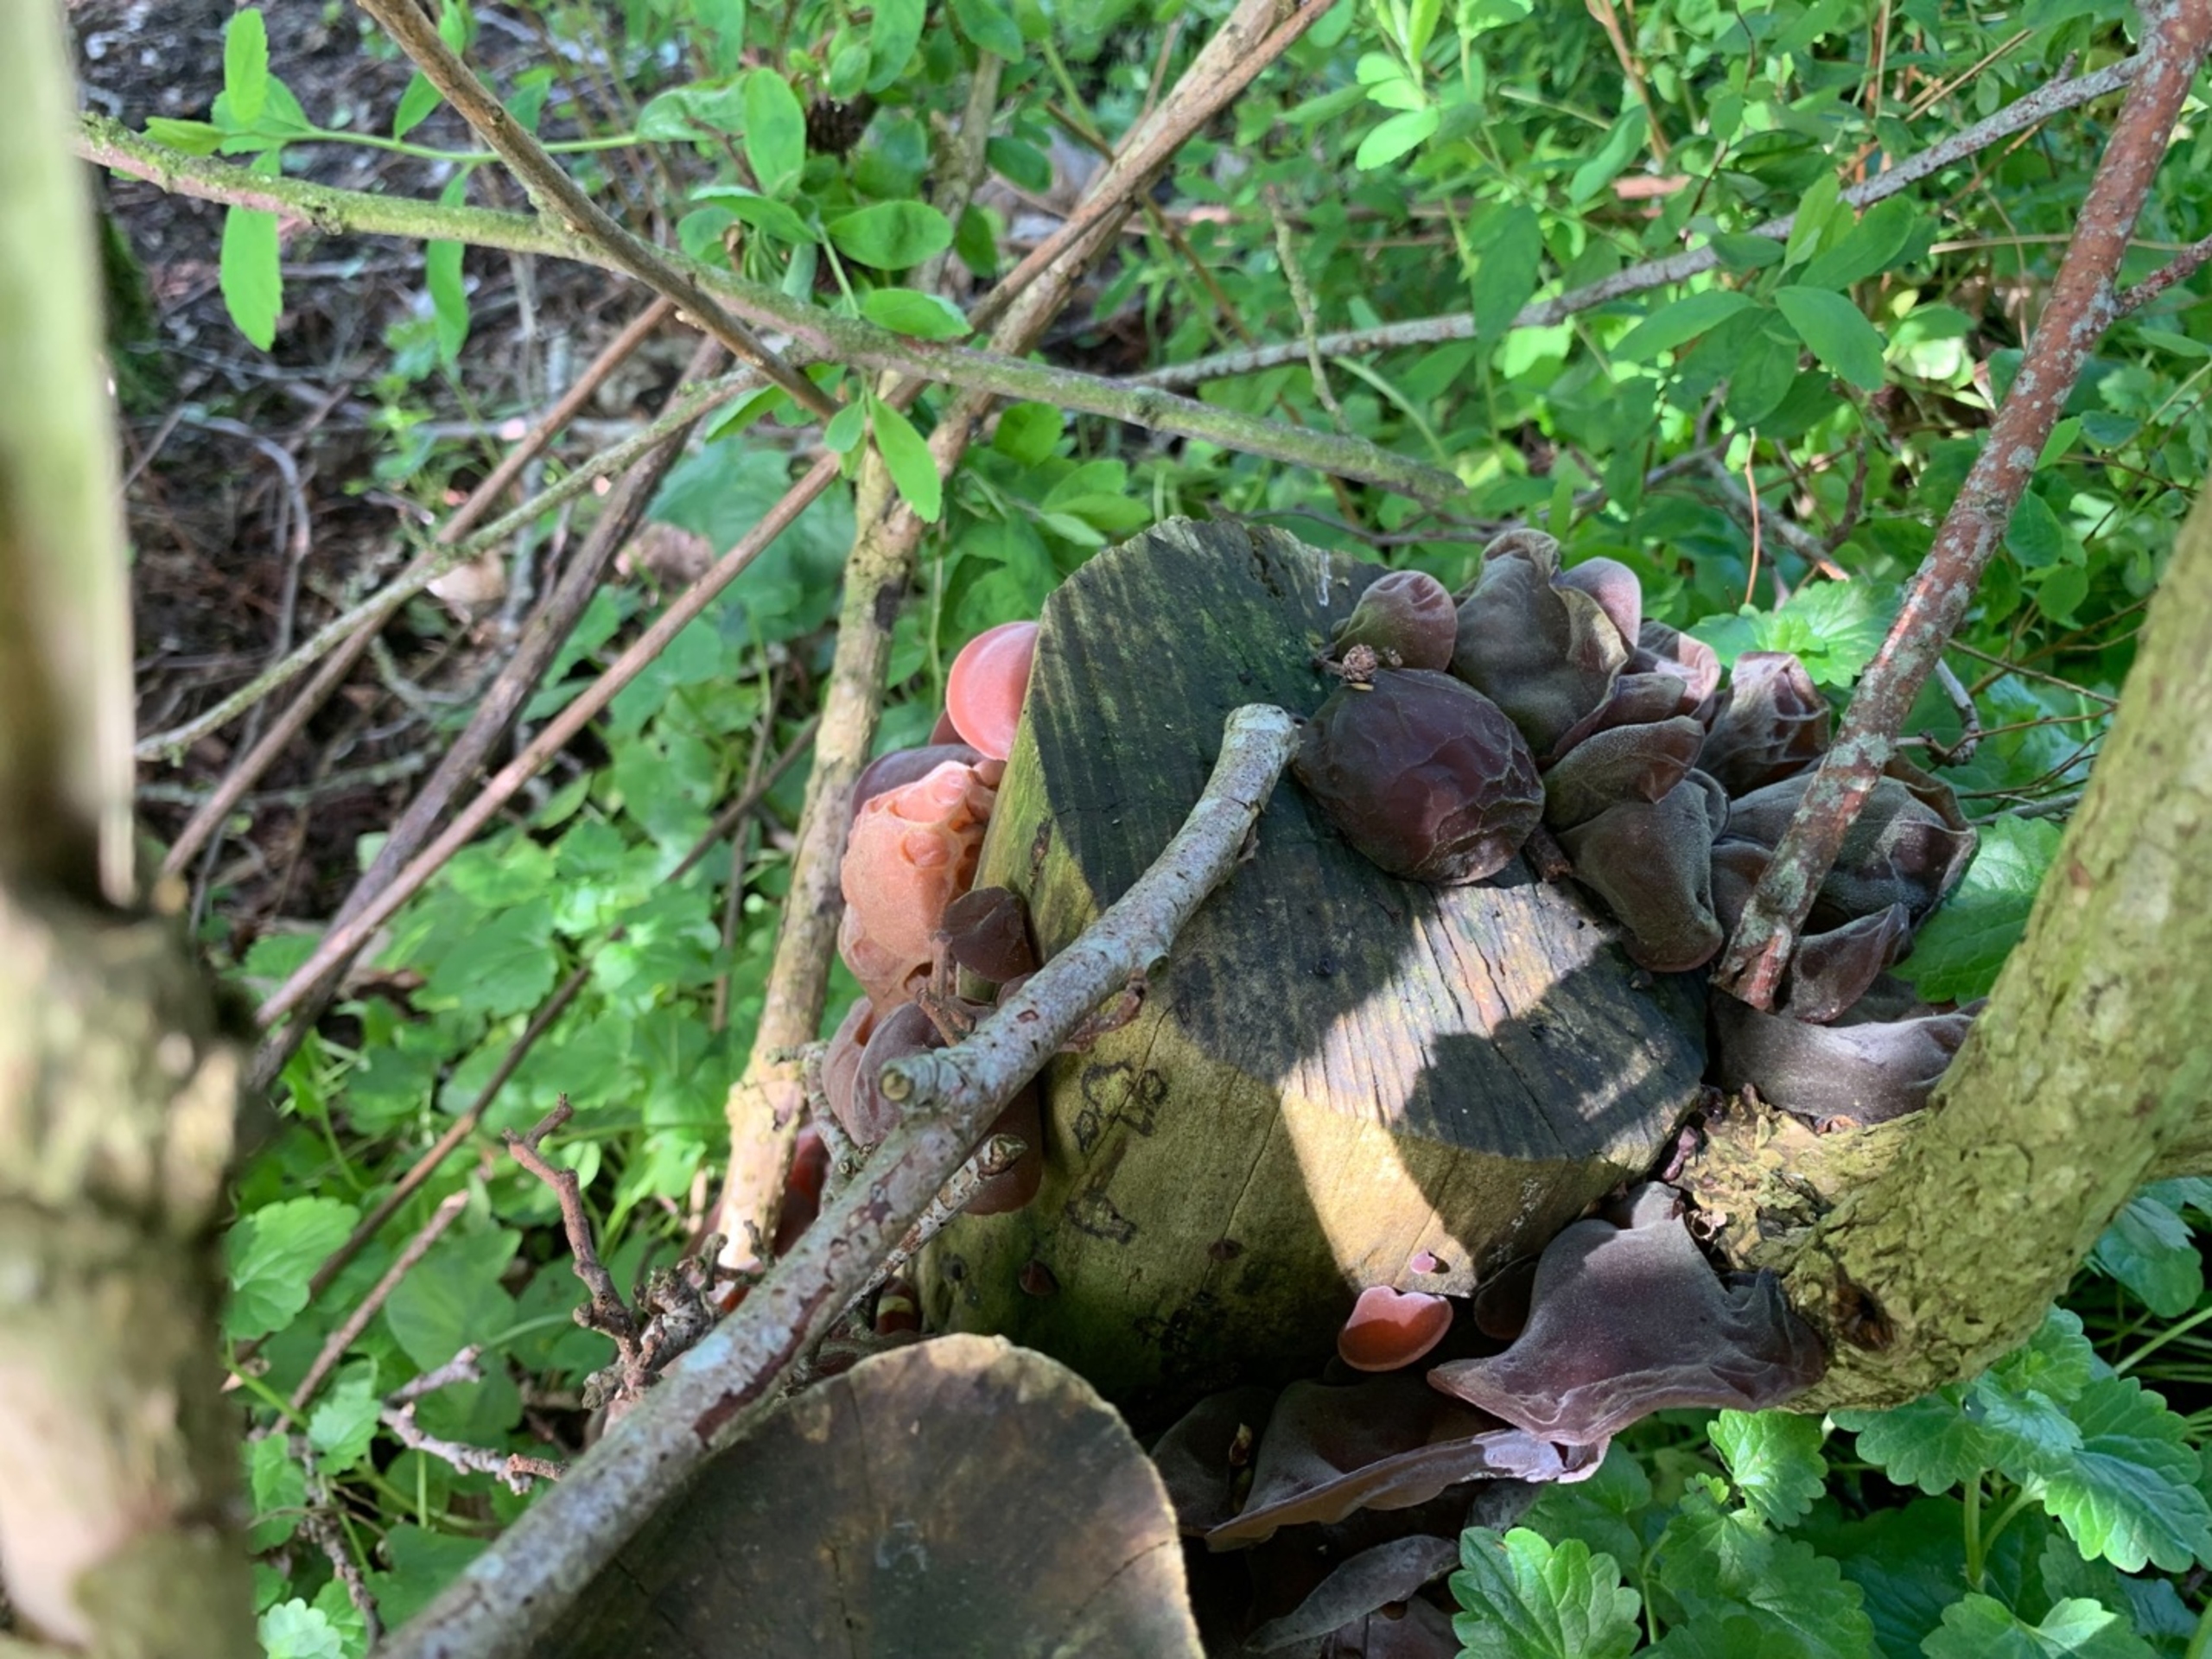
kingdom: Fungi
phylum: Basidiomycota
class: Agaricomycetes
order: Auriculariales
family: Auriculariaceae
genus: Auricularia
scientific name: Auricularia auricula-judae
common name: Almindelig judasøre
